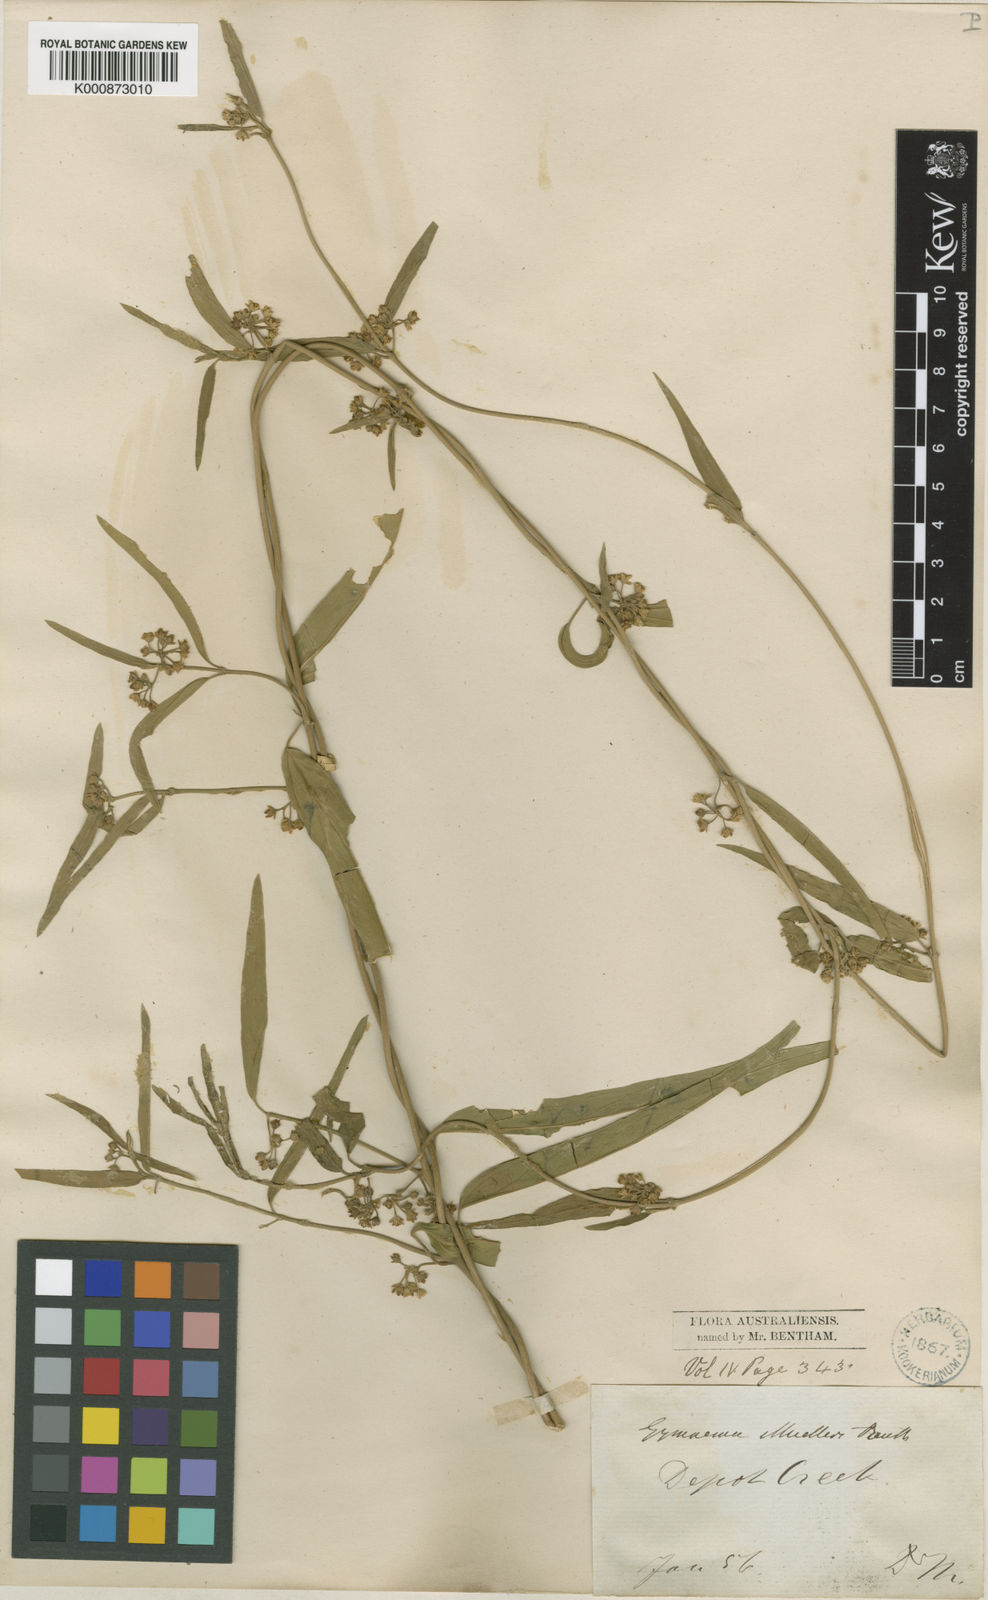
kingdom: Plantae
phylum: Tracheophyta
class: Magnoliopsida
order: Gentianales
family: Apocynaceae
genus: Gymnema
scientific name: Gymnema muelleri
